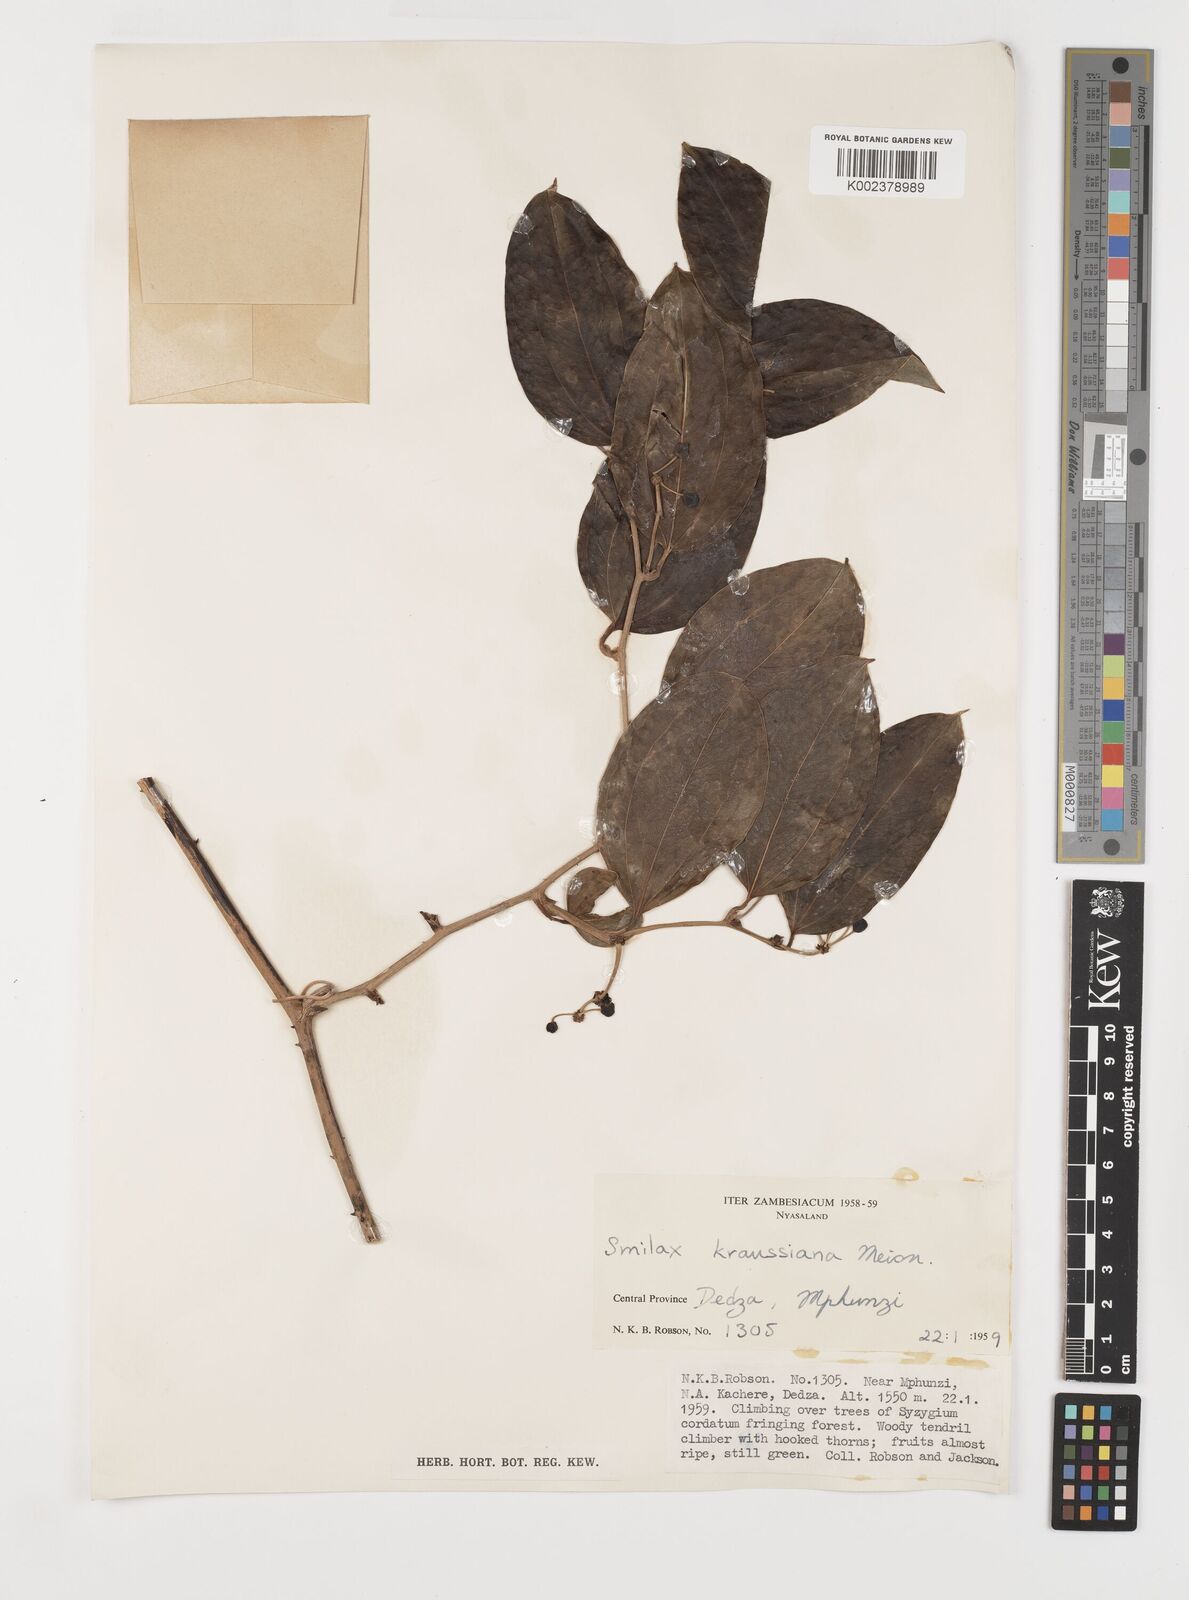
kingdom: Plantae
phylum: Tracheophyta
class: Liliopsida
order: Liliales
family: Smilacaceae
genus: Smilax
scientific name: Smilax anceps
